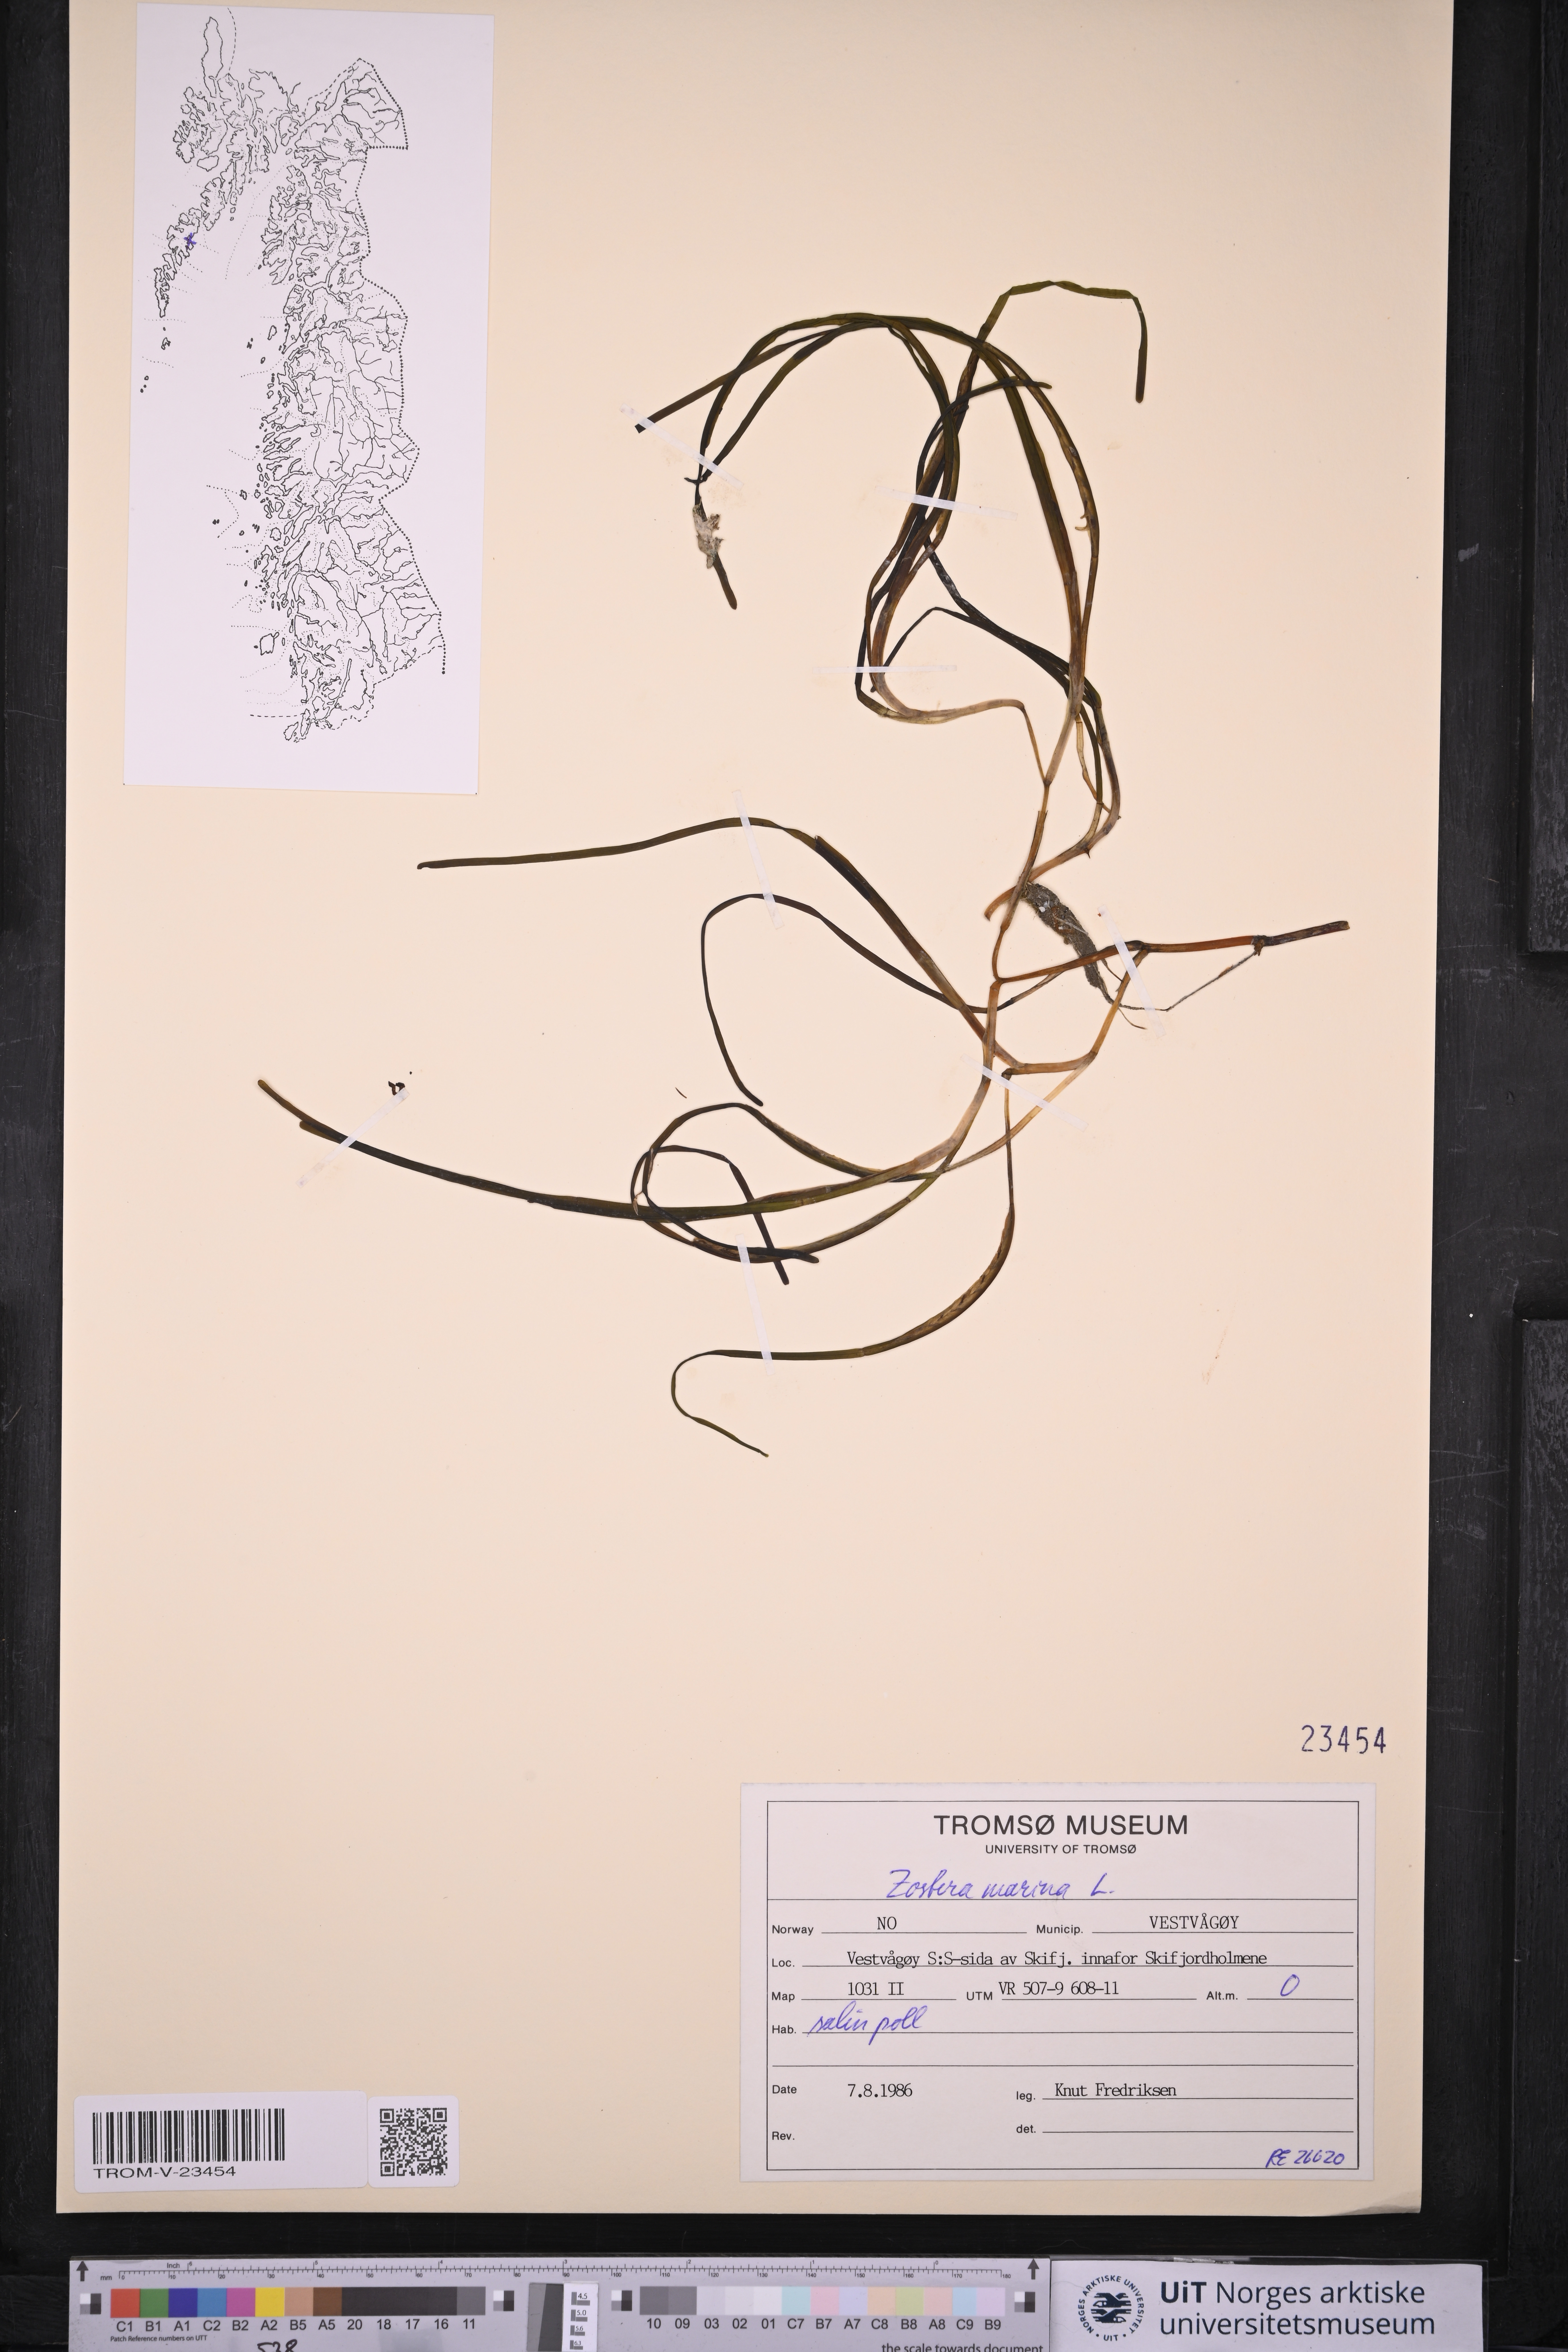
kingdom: Plantae
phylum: Tracheophyta
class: Liliopsida
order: Alismatales
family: Zosteraceae
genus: Zostera
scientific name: Zostera marina
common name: Eelgrass
